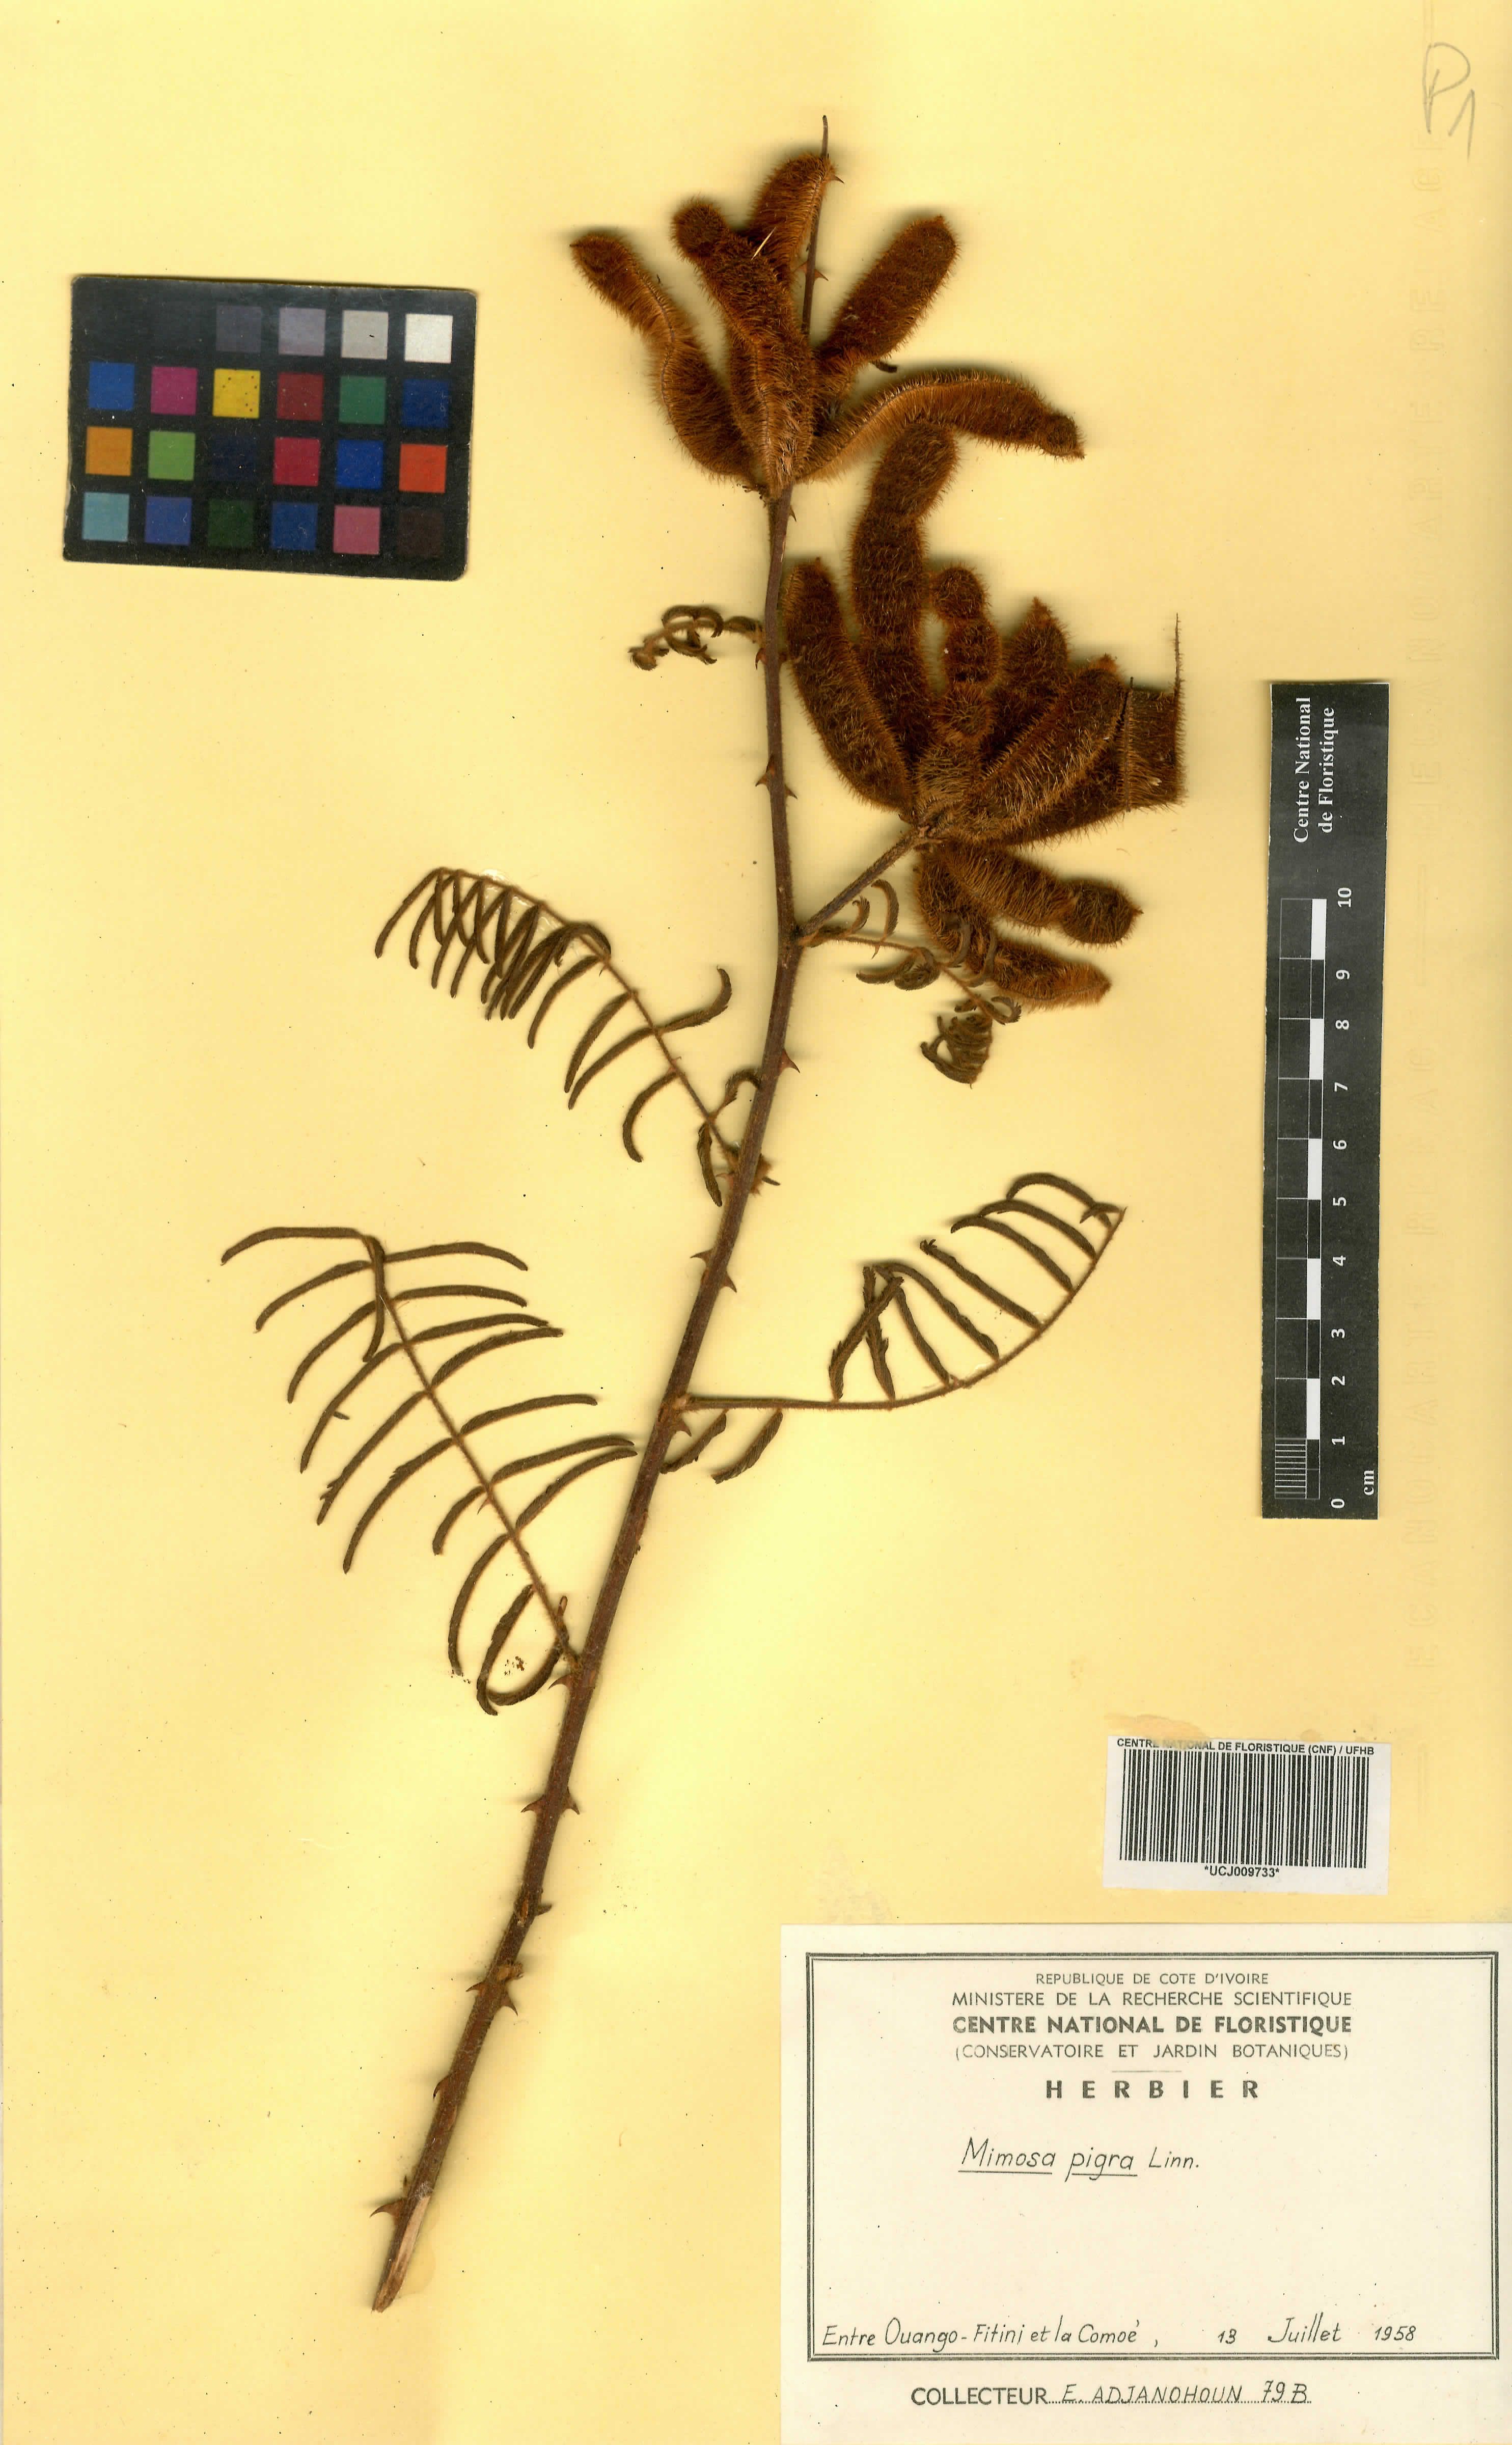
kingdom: Plantae
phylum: Tracheophyta
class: Magnoliopsida
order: Fabales
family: Fabaceae
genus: Mimosa
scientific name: Mimosa pigra
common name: Black mimosa
